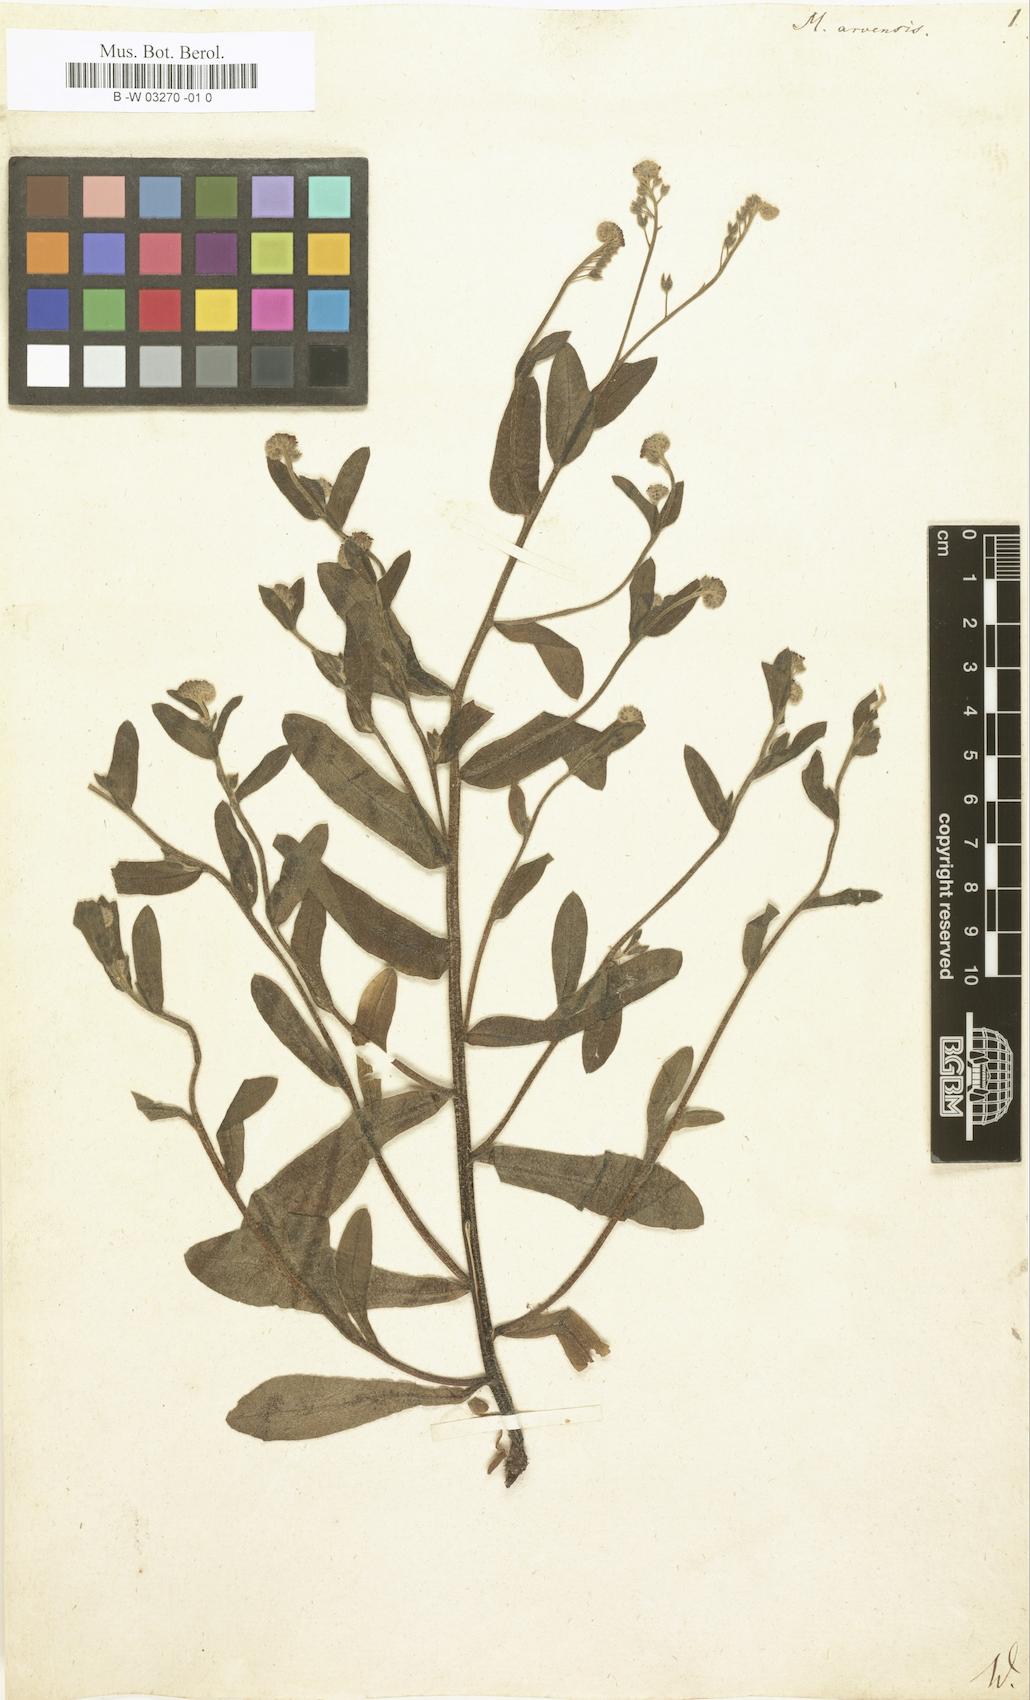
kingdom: Plantae
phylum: Tracheophyta
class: Magnoliopsida
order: Boraginales
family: Boraginaceae
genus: Myosotis
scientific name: Myosotis arvensis
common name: Field forget-me-not
